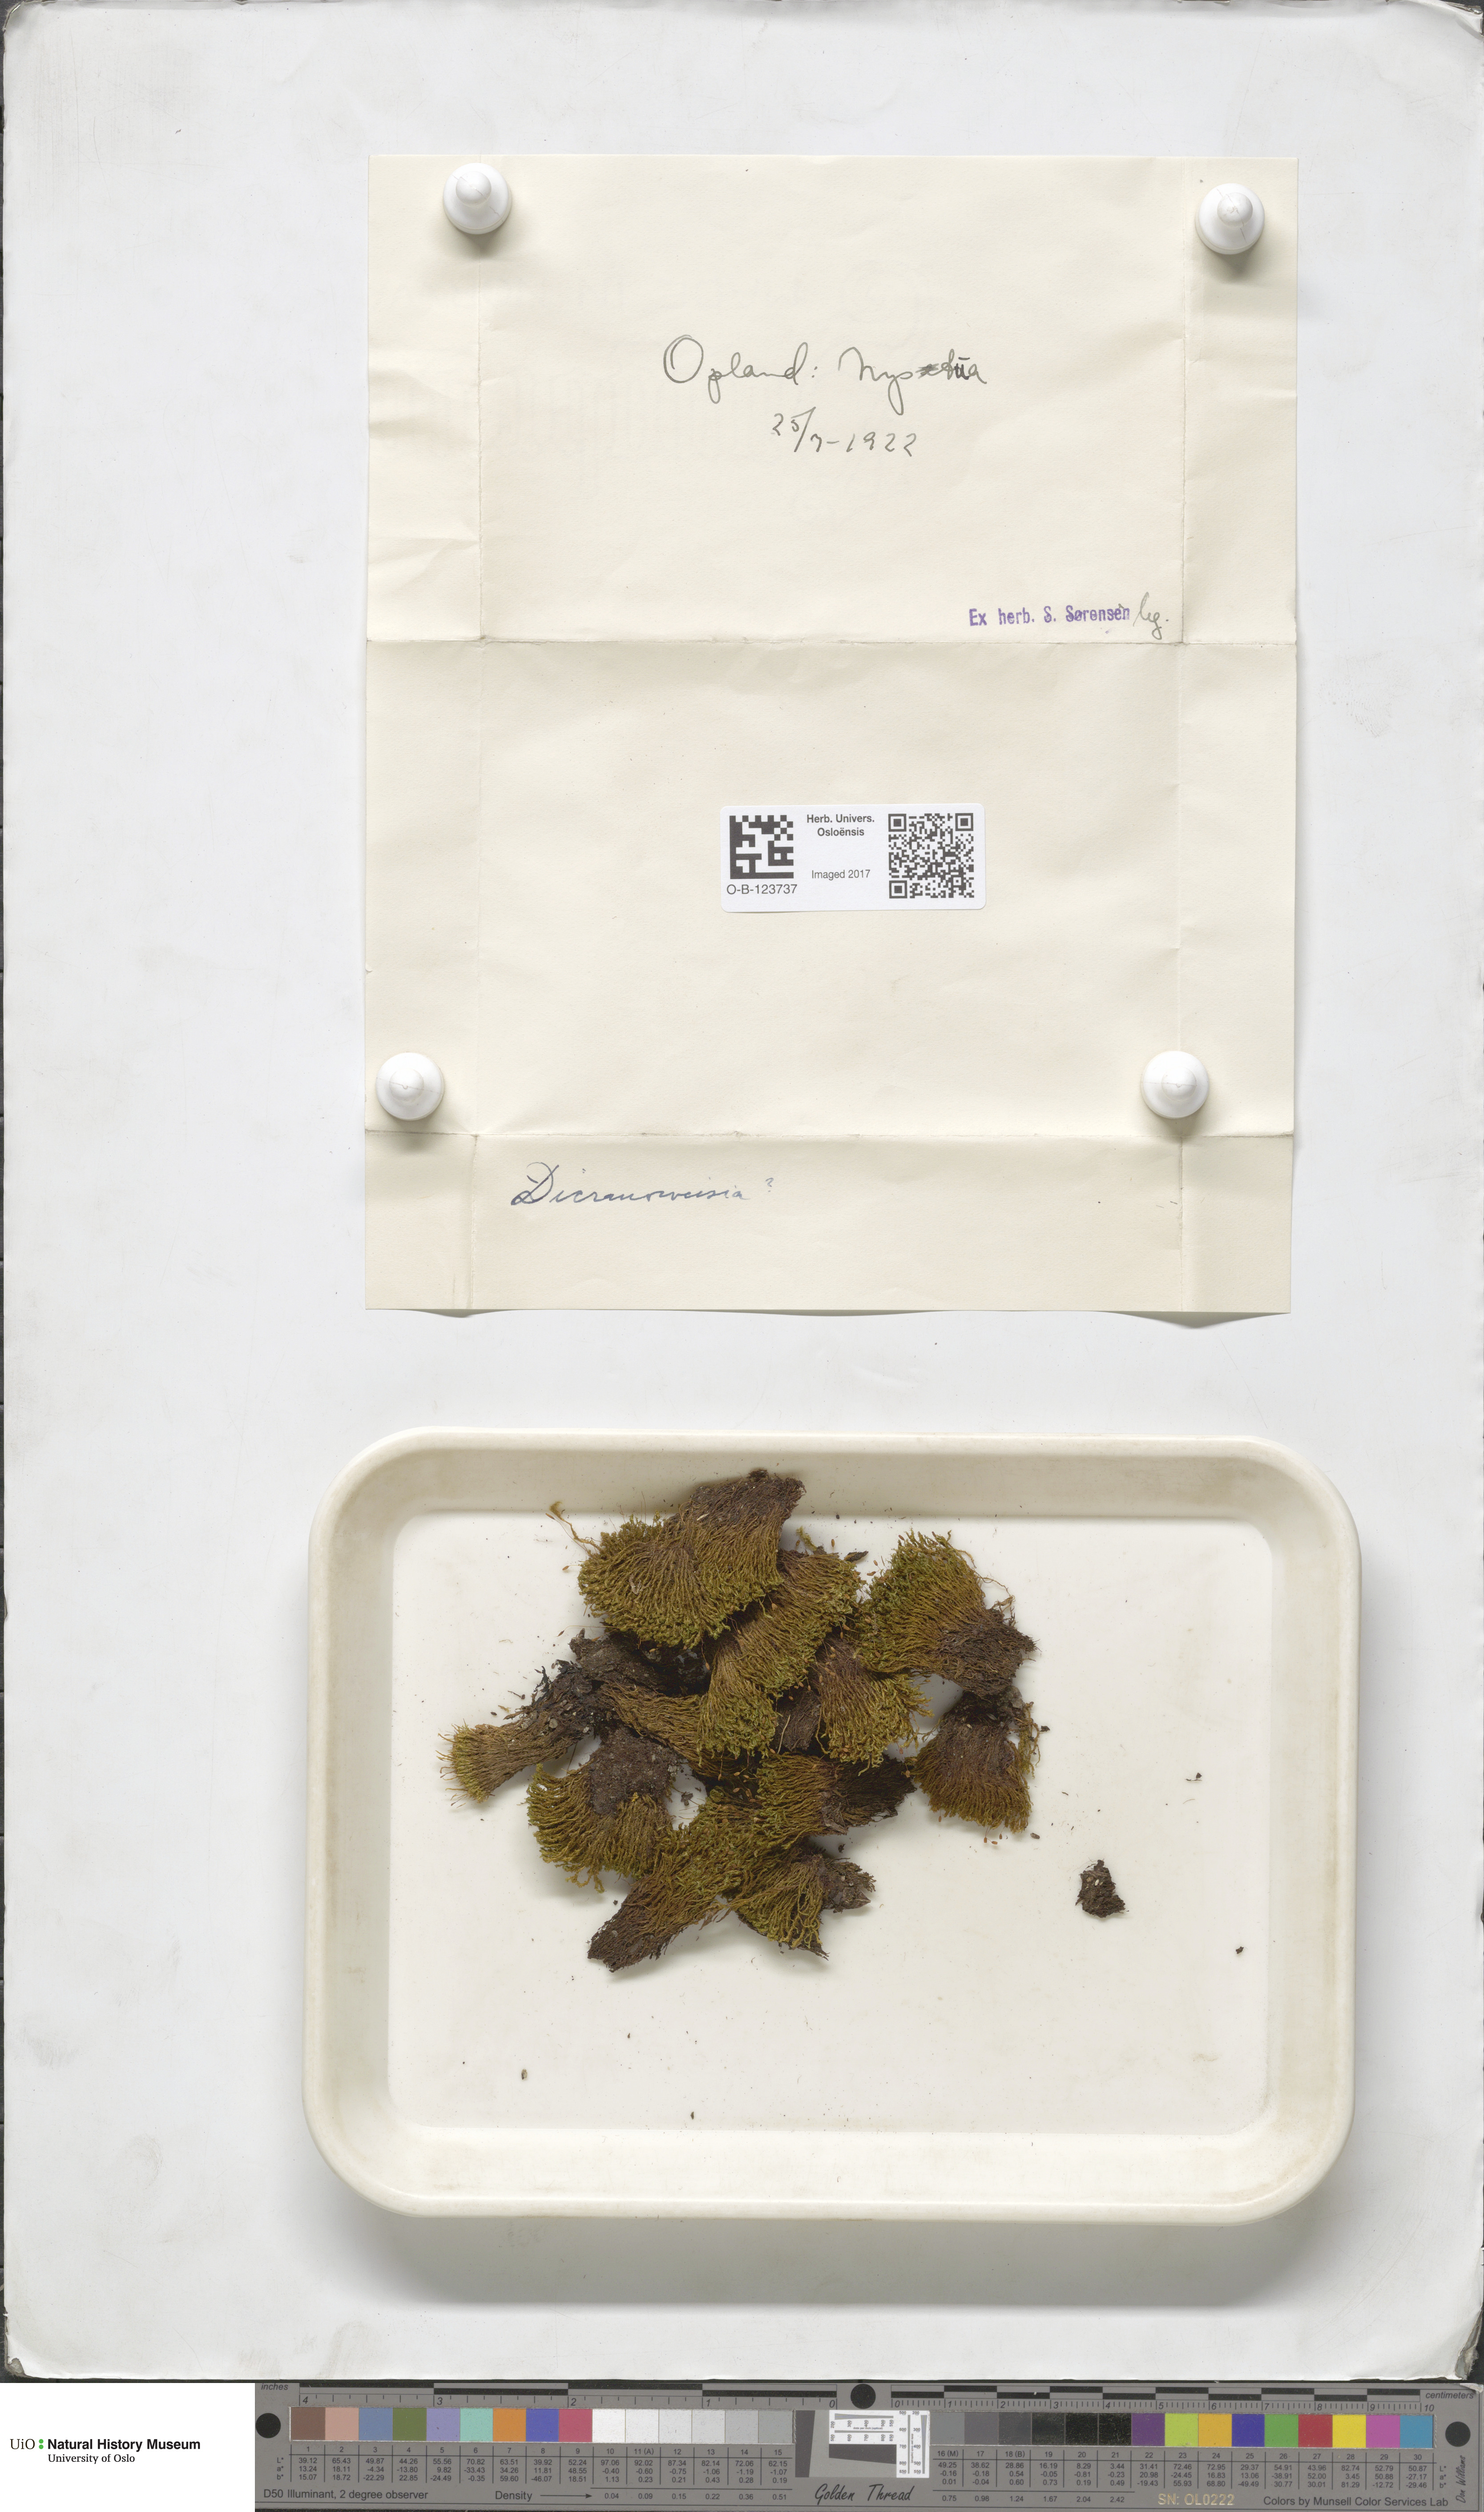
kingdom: Plantae
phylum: Bryophyta
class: Bryopsida
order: Dicranales
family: Rhabdoweisiaceae
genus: Dicranoweisia
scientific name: Dicranoweisia
